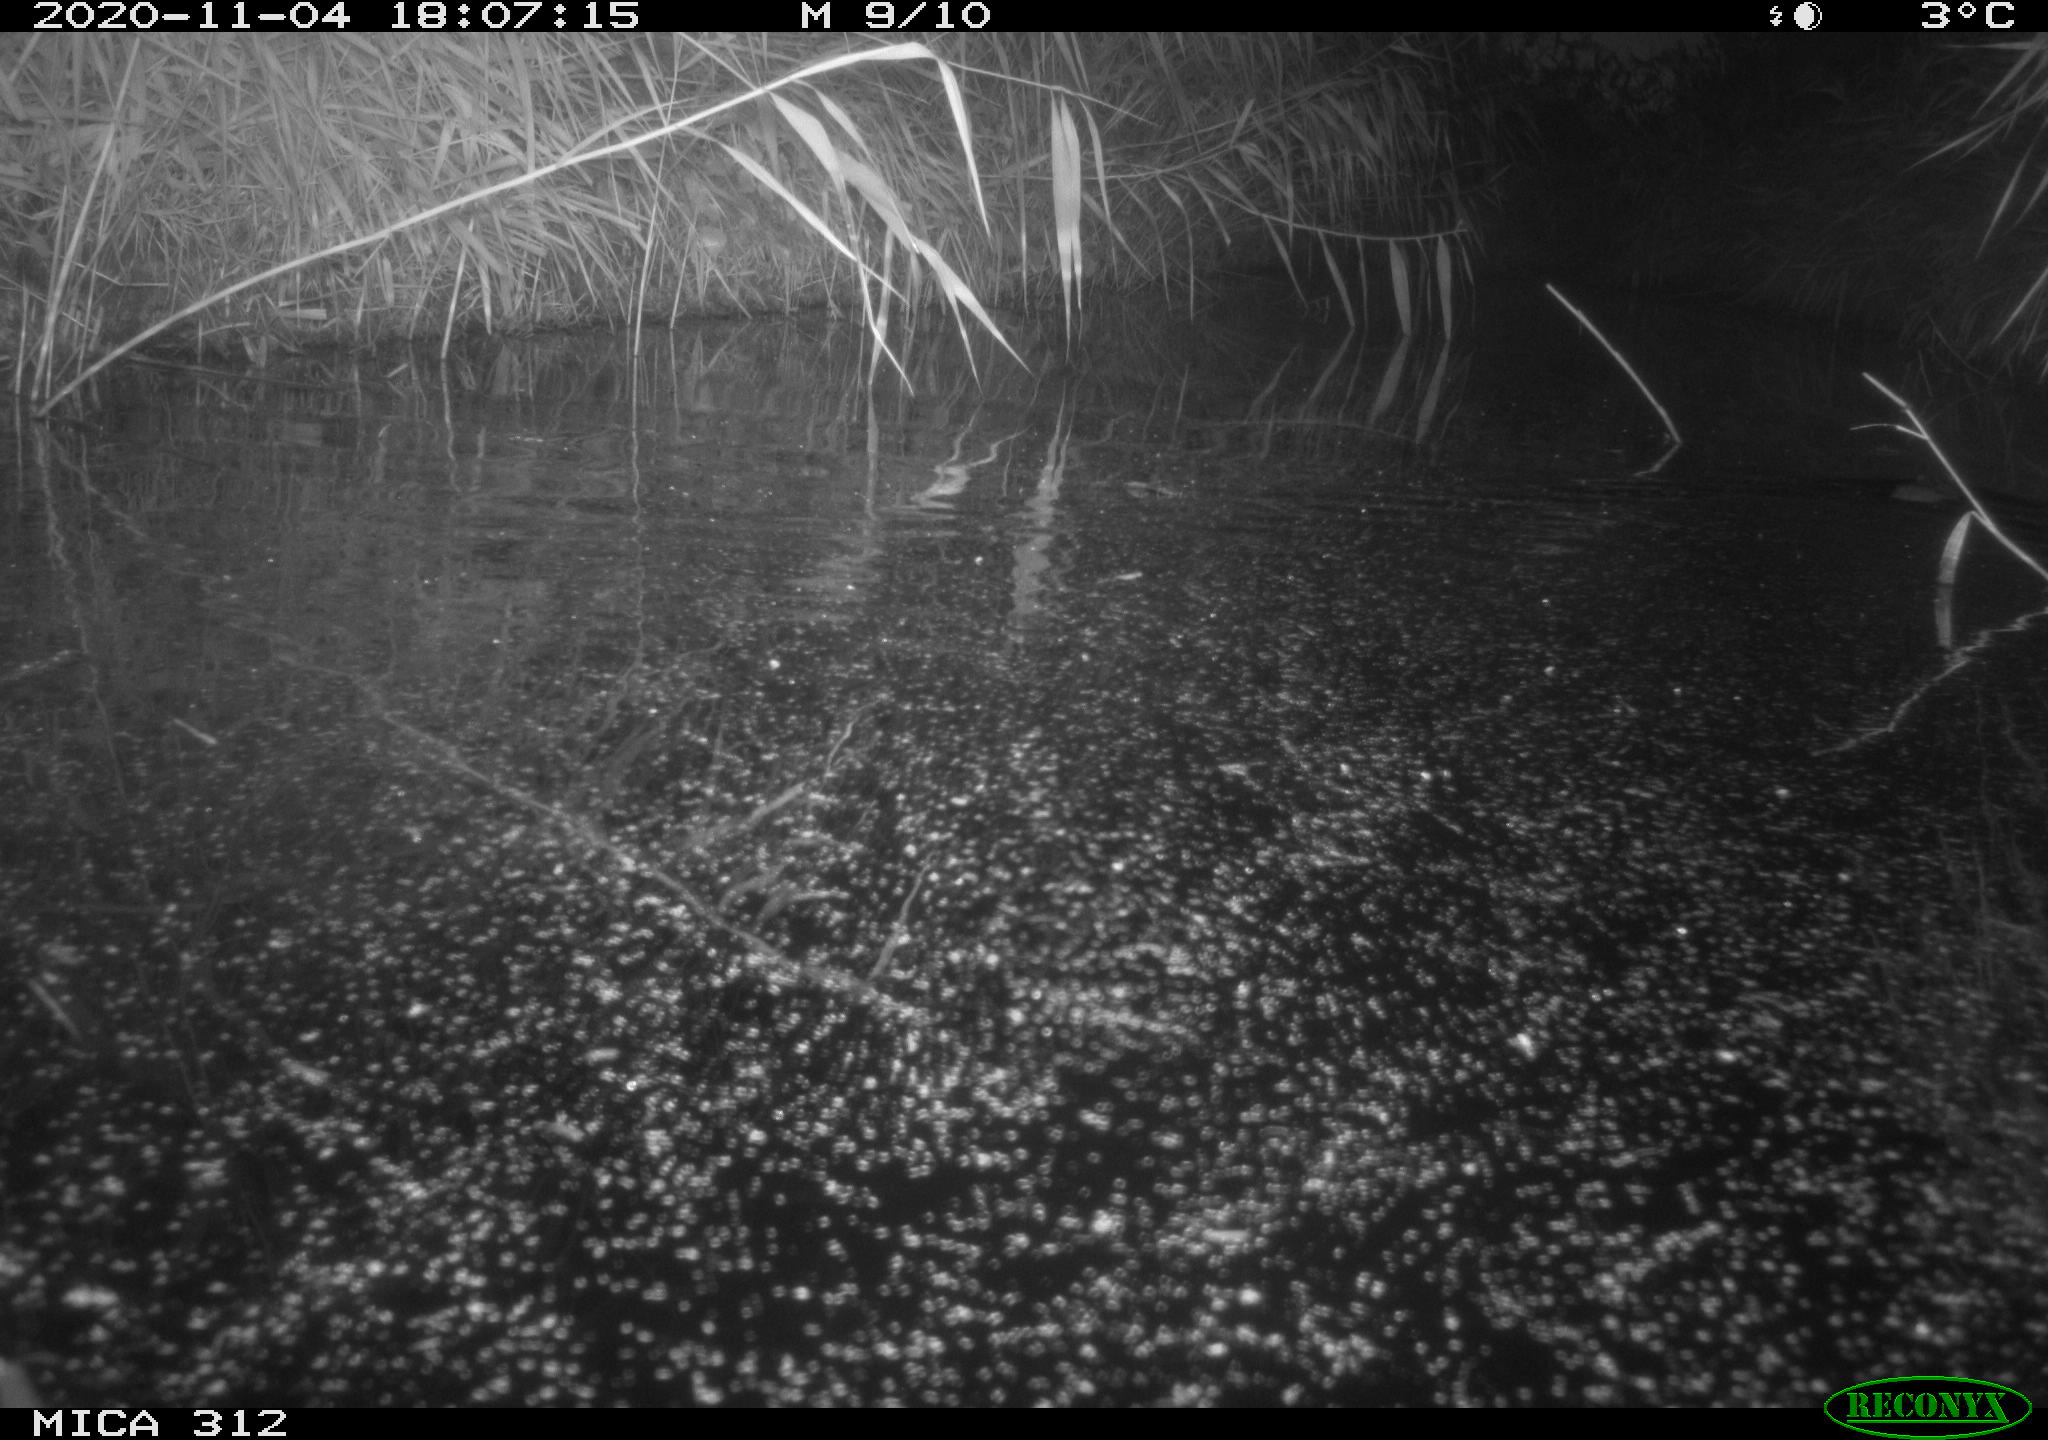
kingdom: Animalia
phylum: Chordata
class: Mammalia
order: Rodentia
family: Cricetidae
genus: Ondatra
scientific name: Ondatra zibethicus
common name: Muskrat
